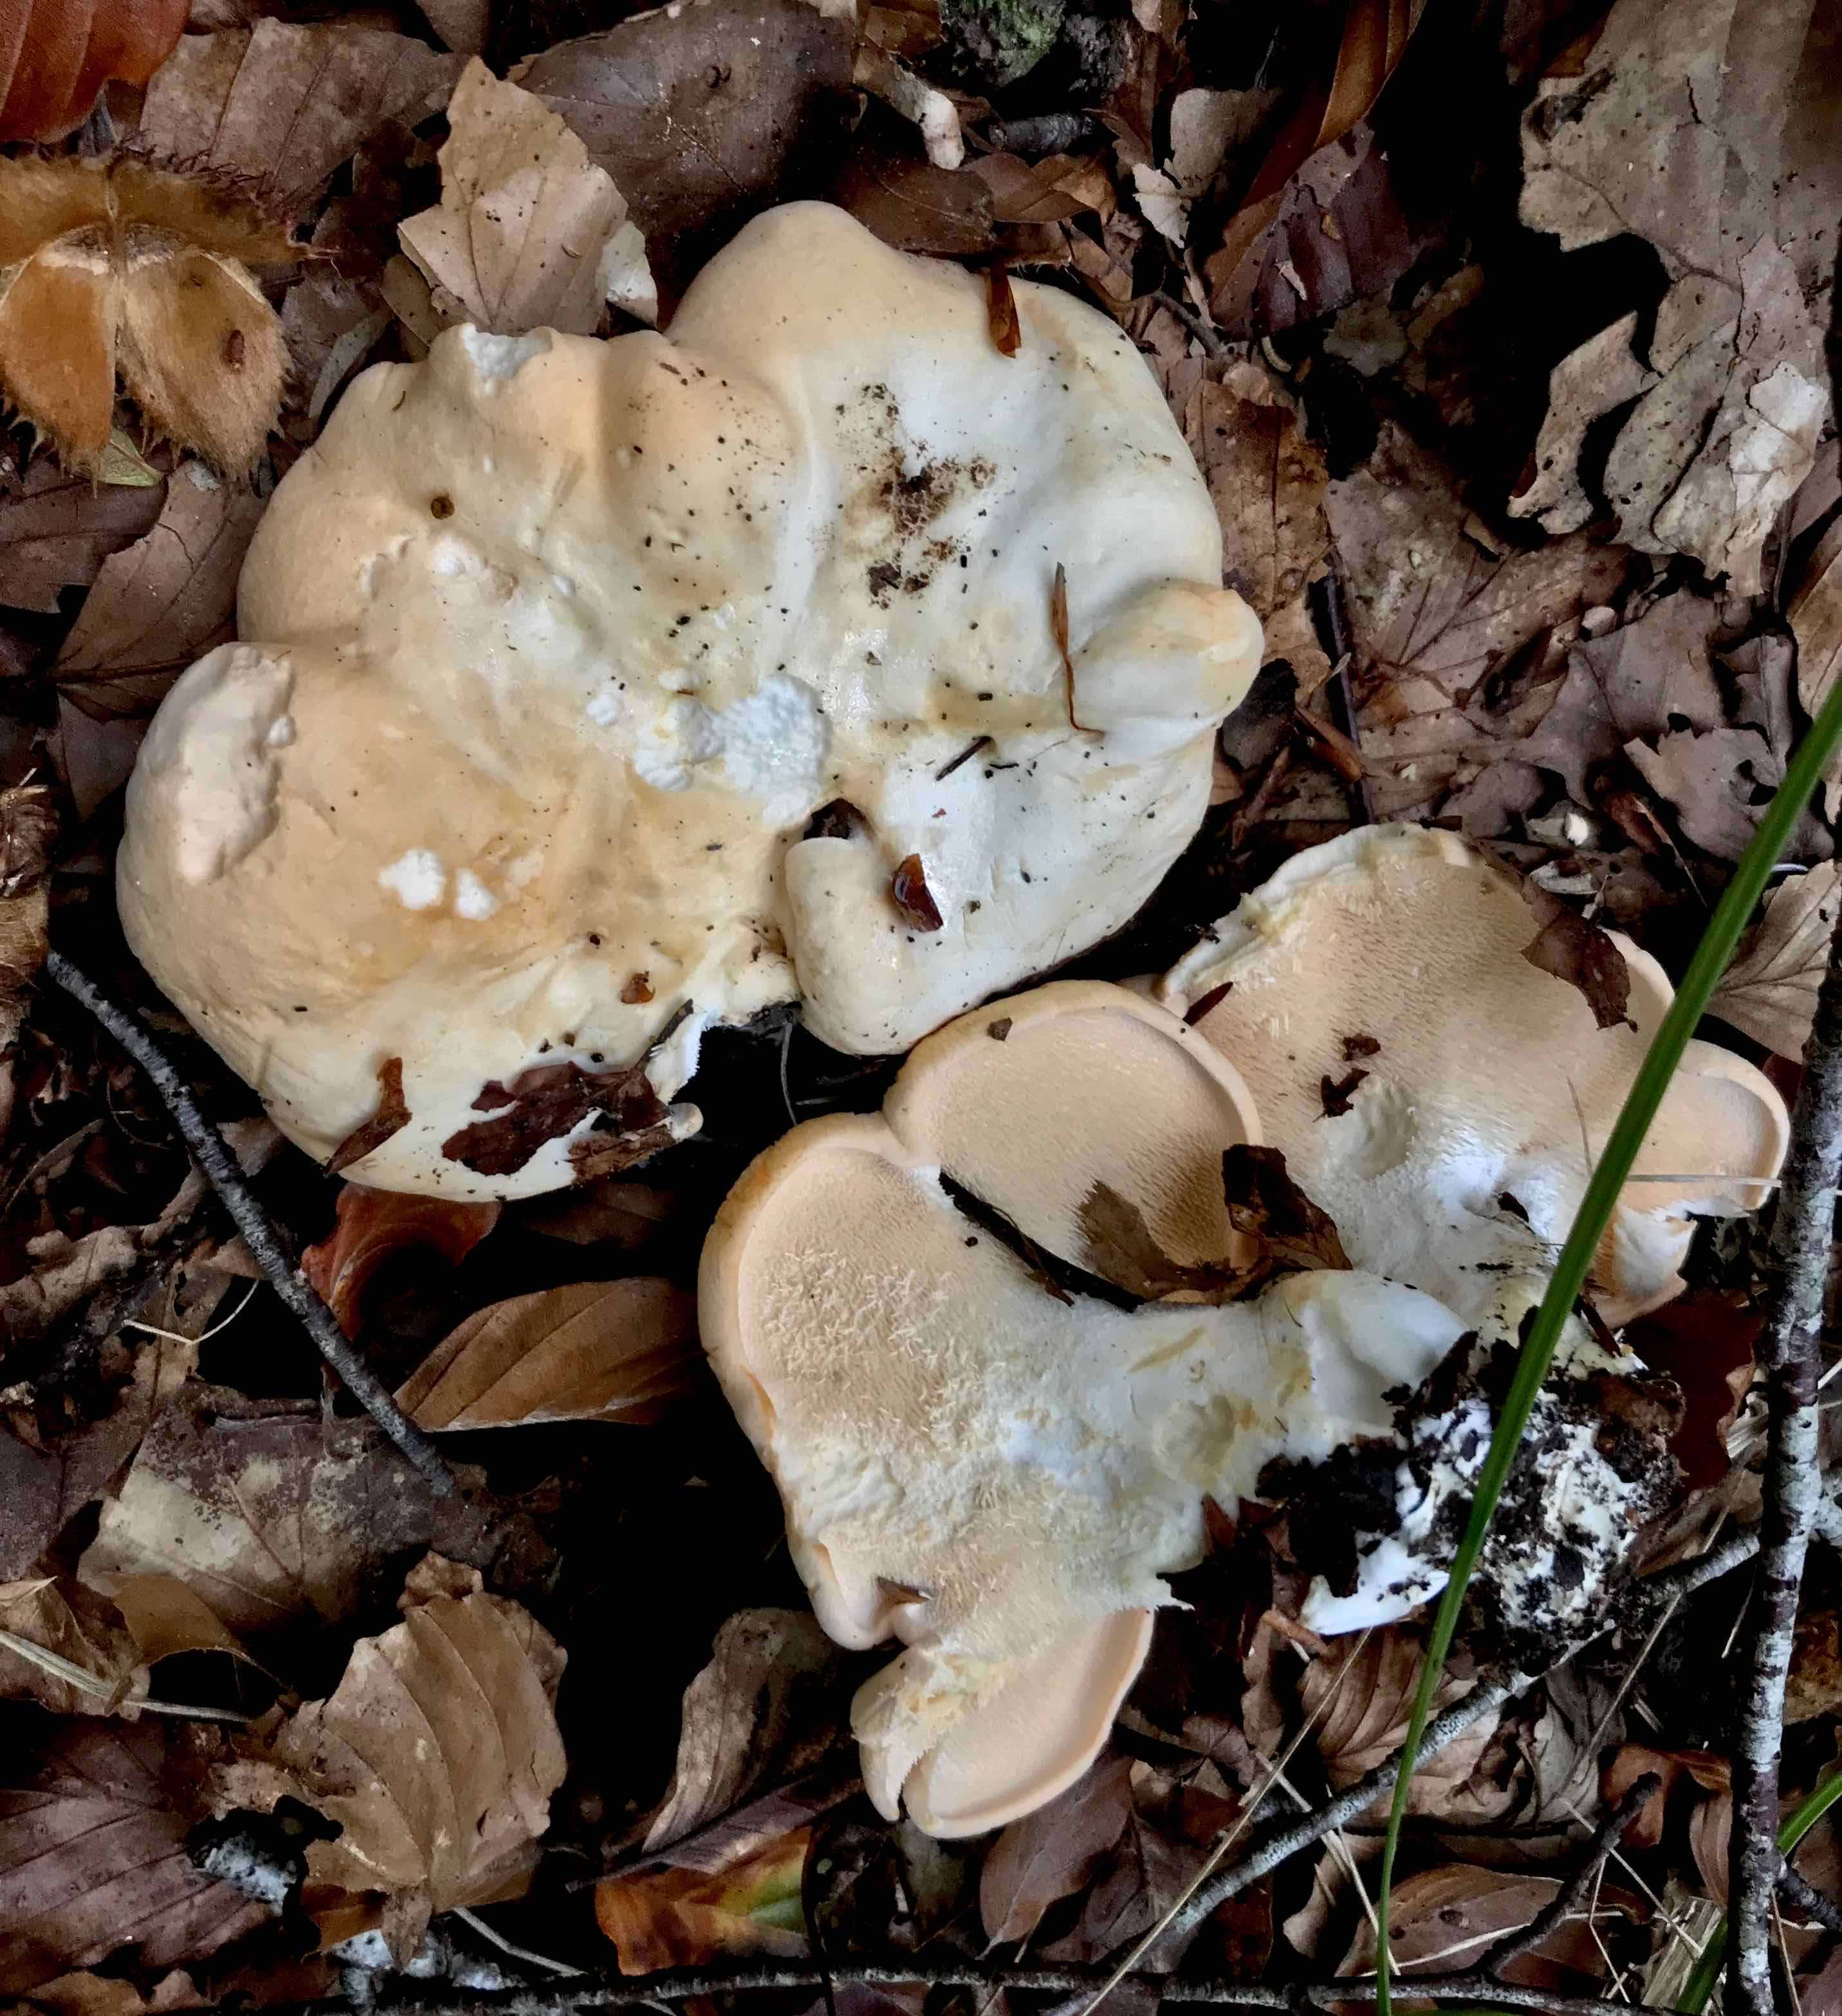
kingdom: Fungi
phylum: Basidiomycota
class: Agaricomycetes
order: Cantharellales
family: Hydnaceae
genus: Hydnum
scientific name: Hydnum repandum
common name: almindelig pigsvamp
